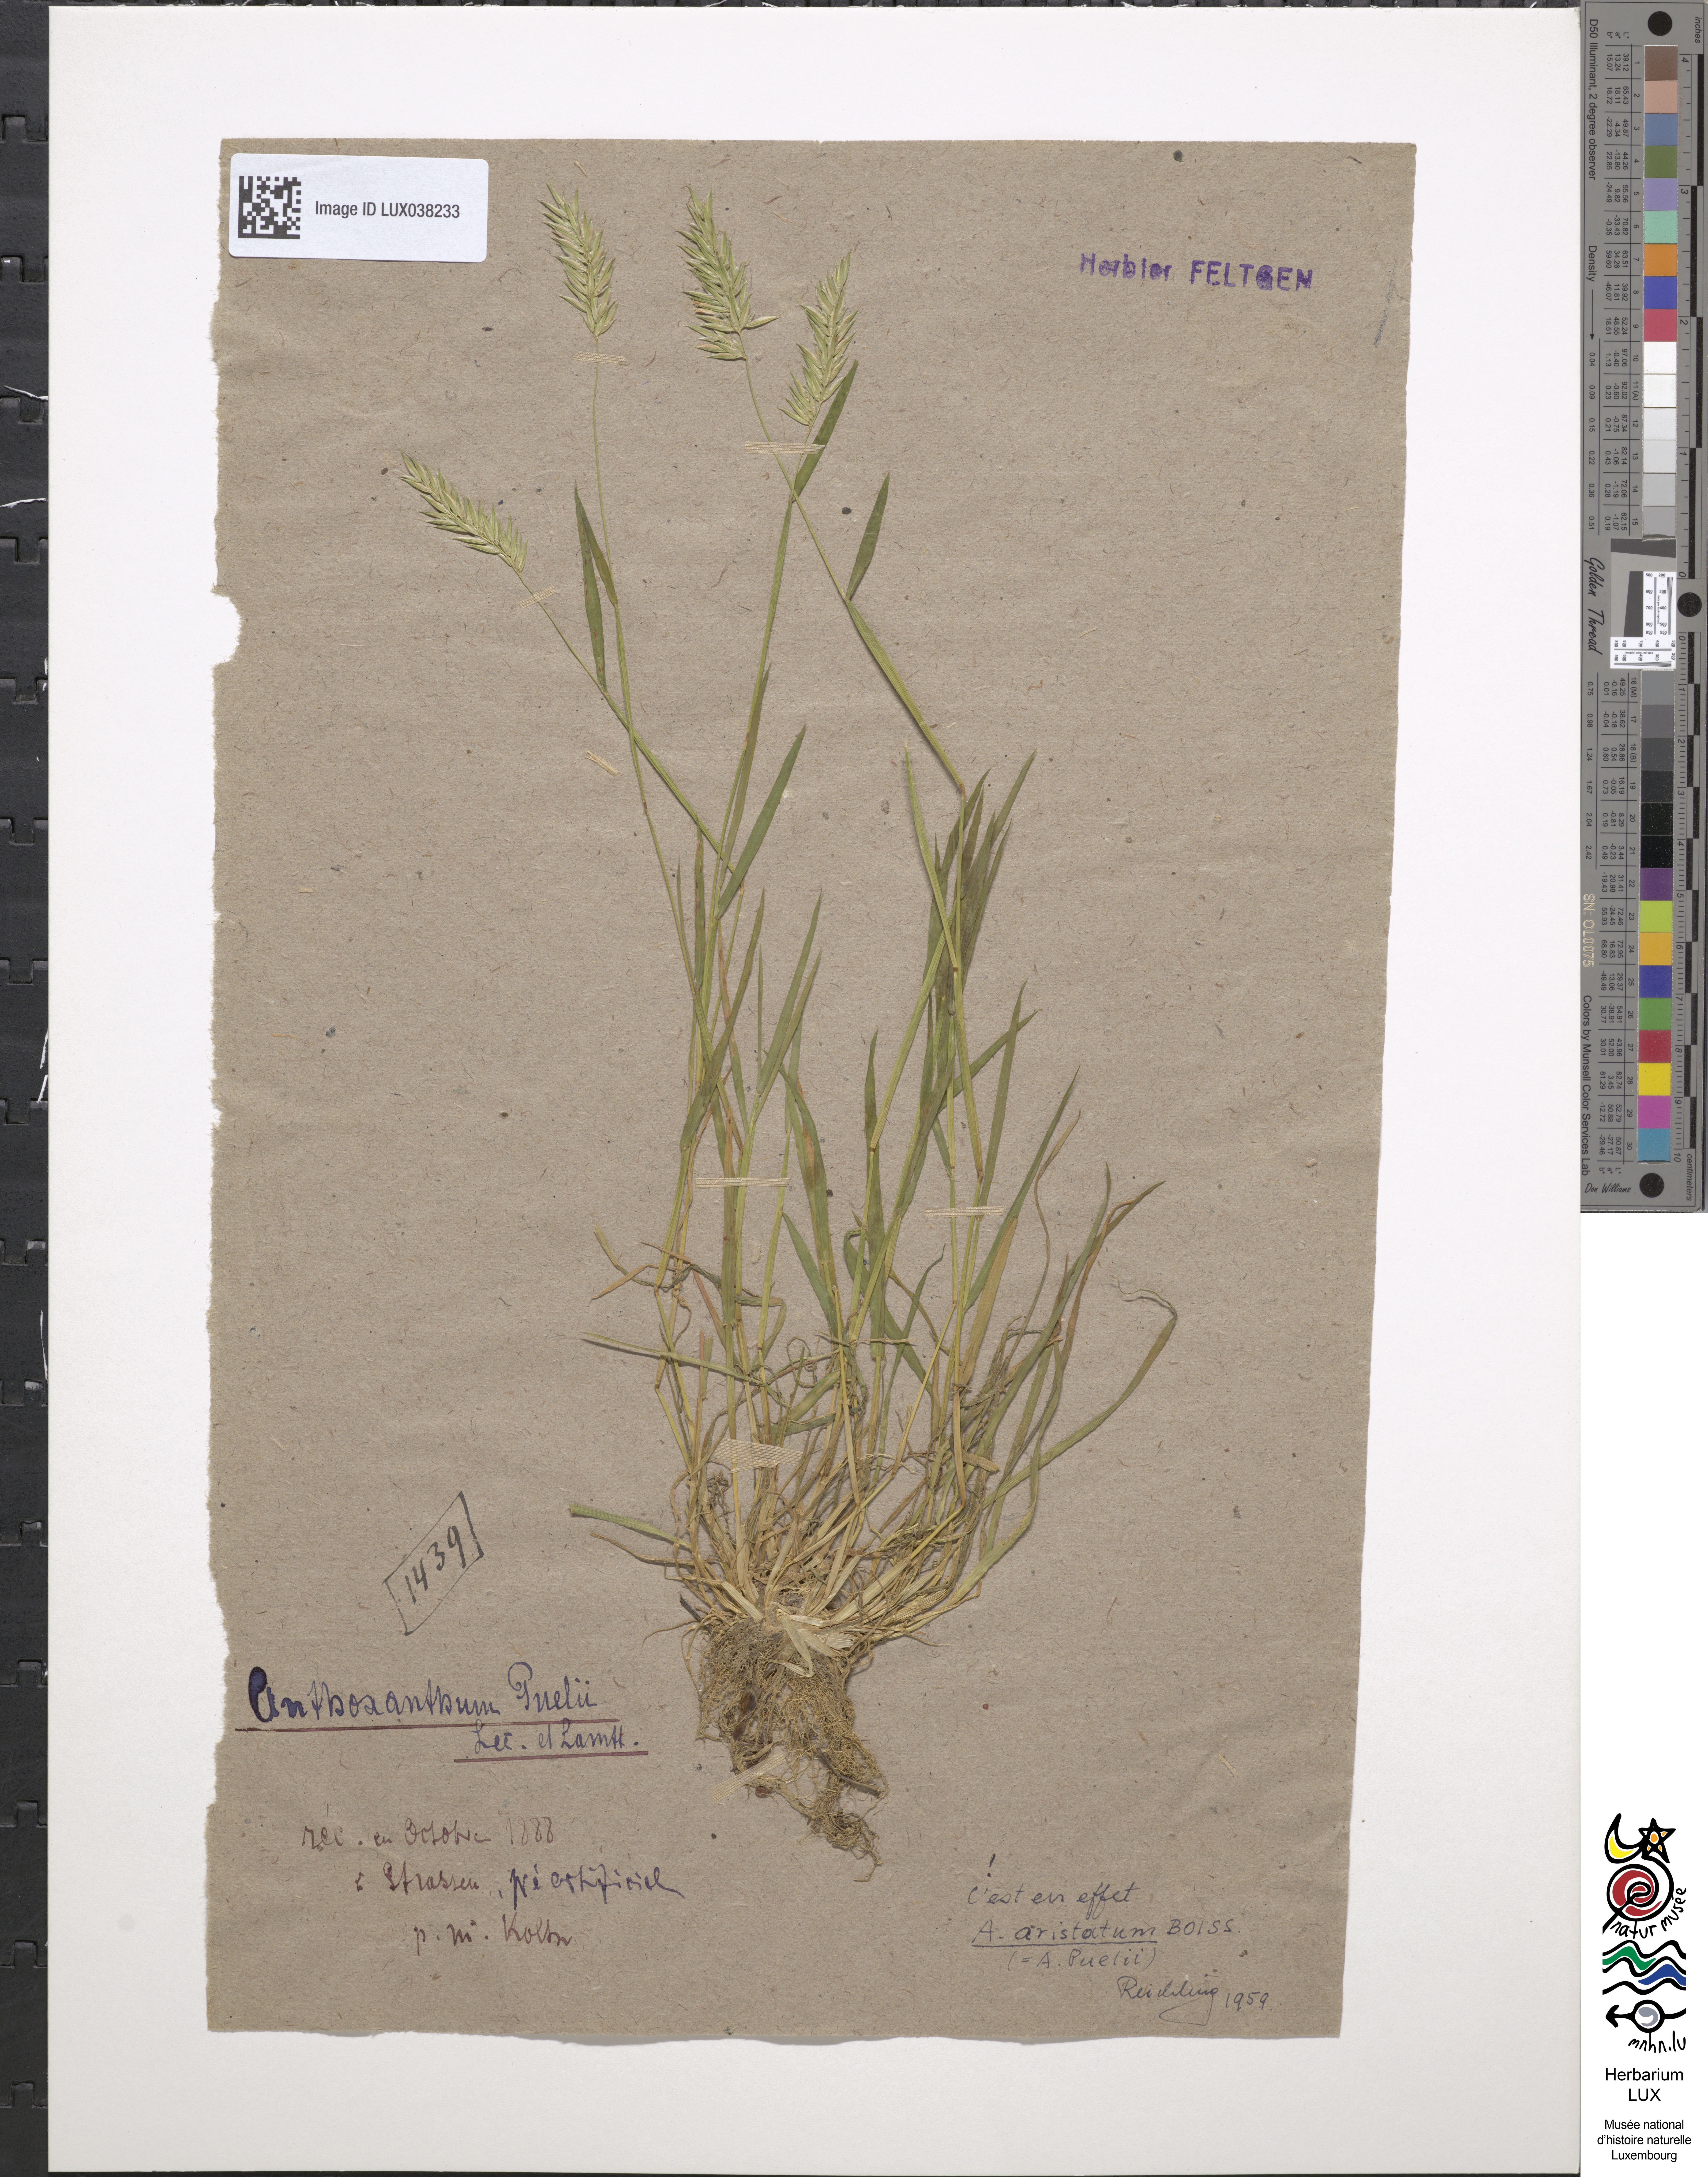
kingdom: Plantae
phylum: Tracheophyta
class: Liliopsida
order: Poales
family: Poaceae
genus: Anthoxanthum
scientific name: Anthoxanthum aristatum
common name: Annual vernal-grass
